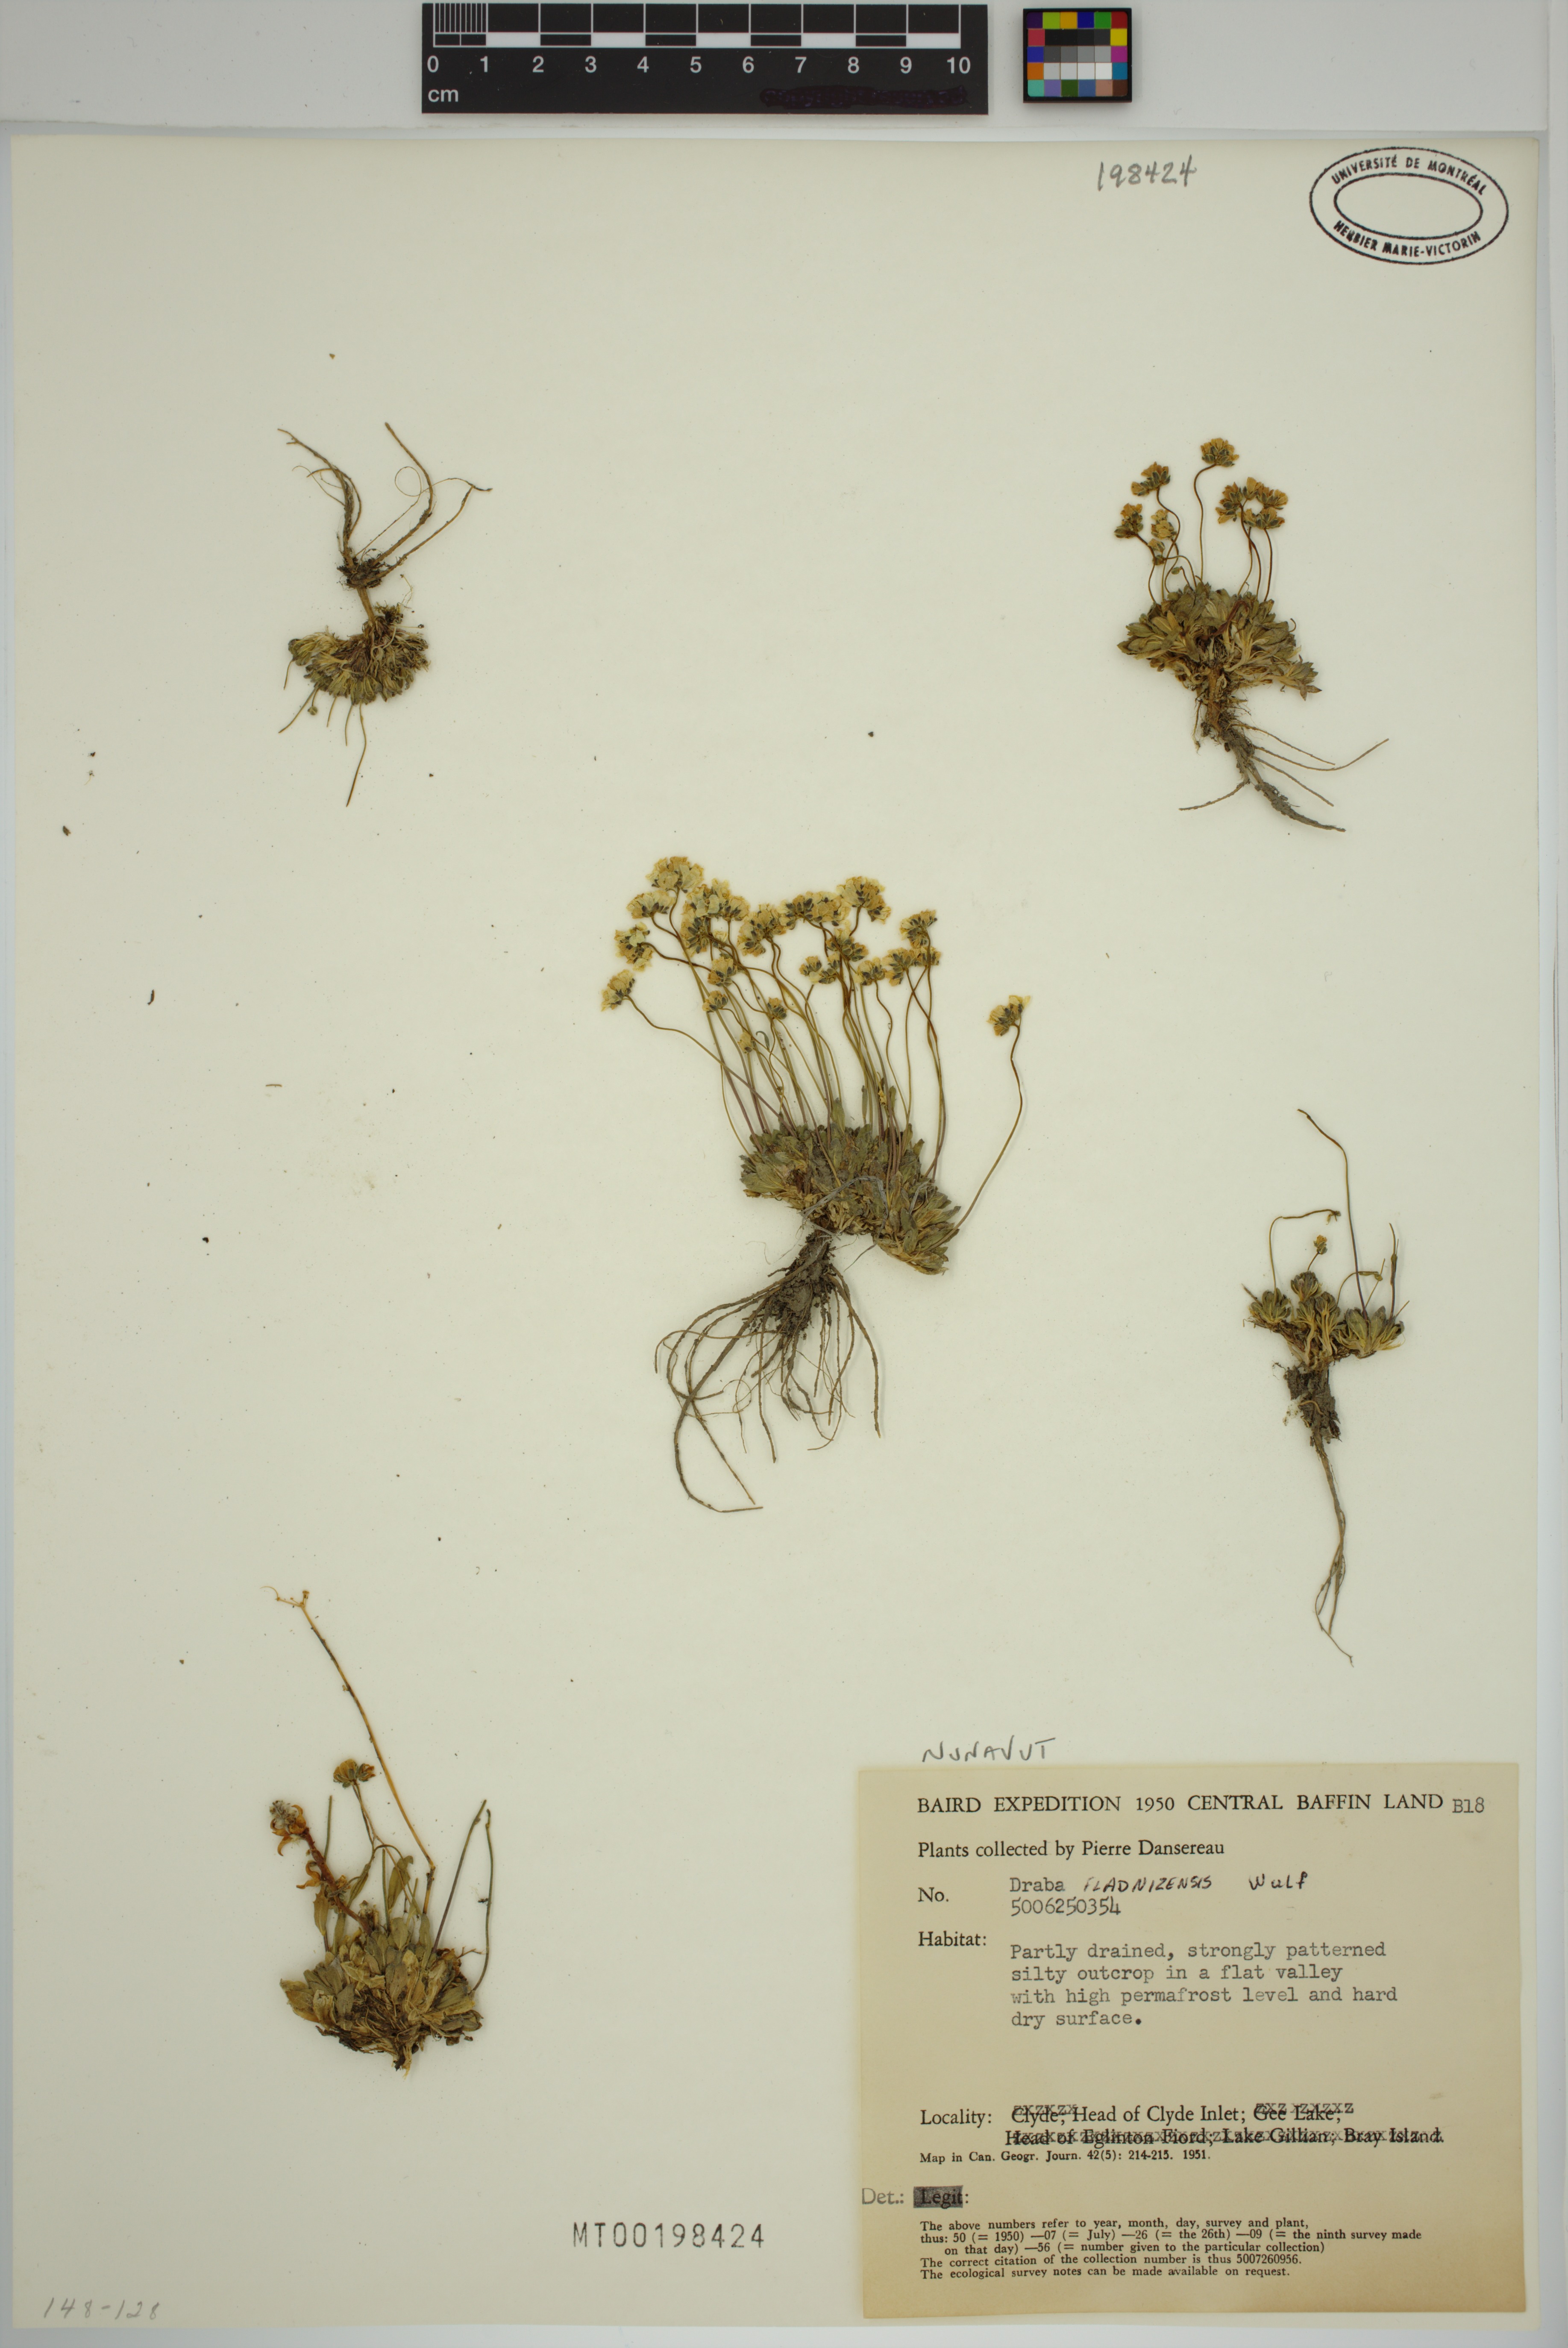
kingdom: Plantae
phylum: Tracheophyta
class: Magnoliopsida
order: Brassicales
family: Brassicaceae
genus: Draba
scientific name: Draba lactea
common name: Milky draba
